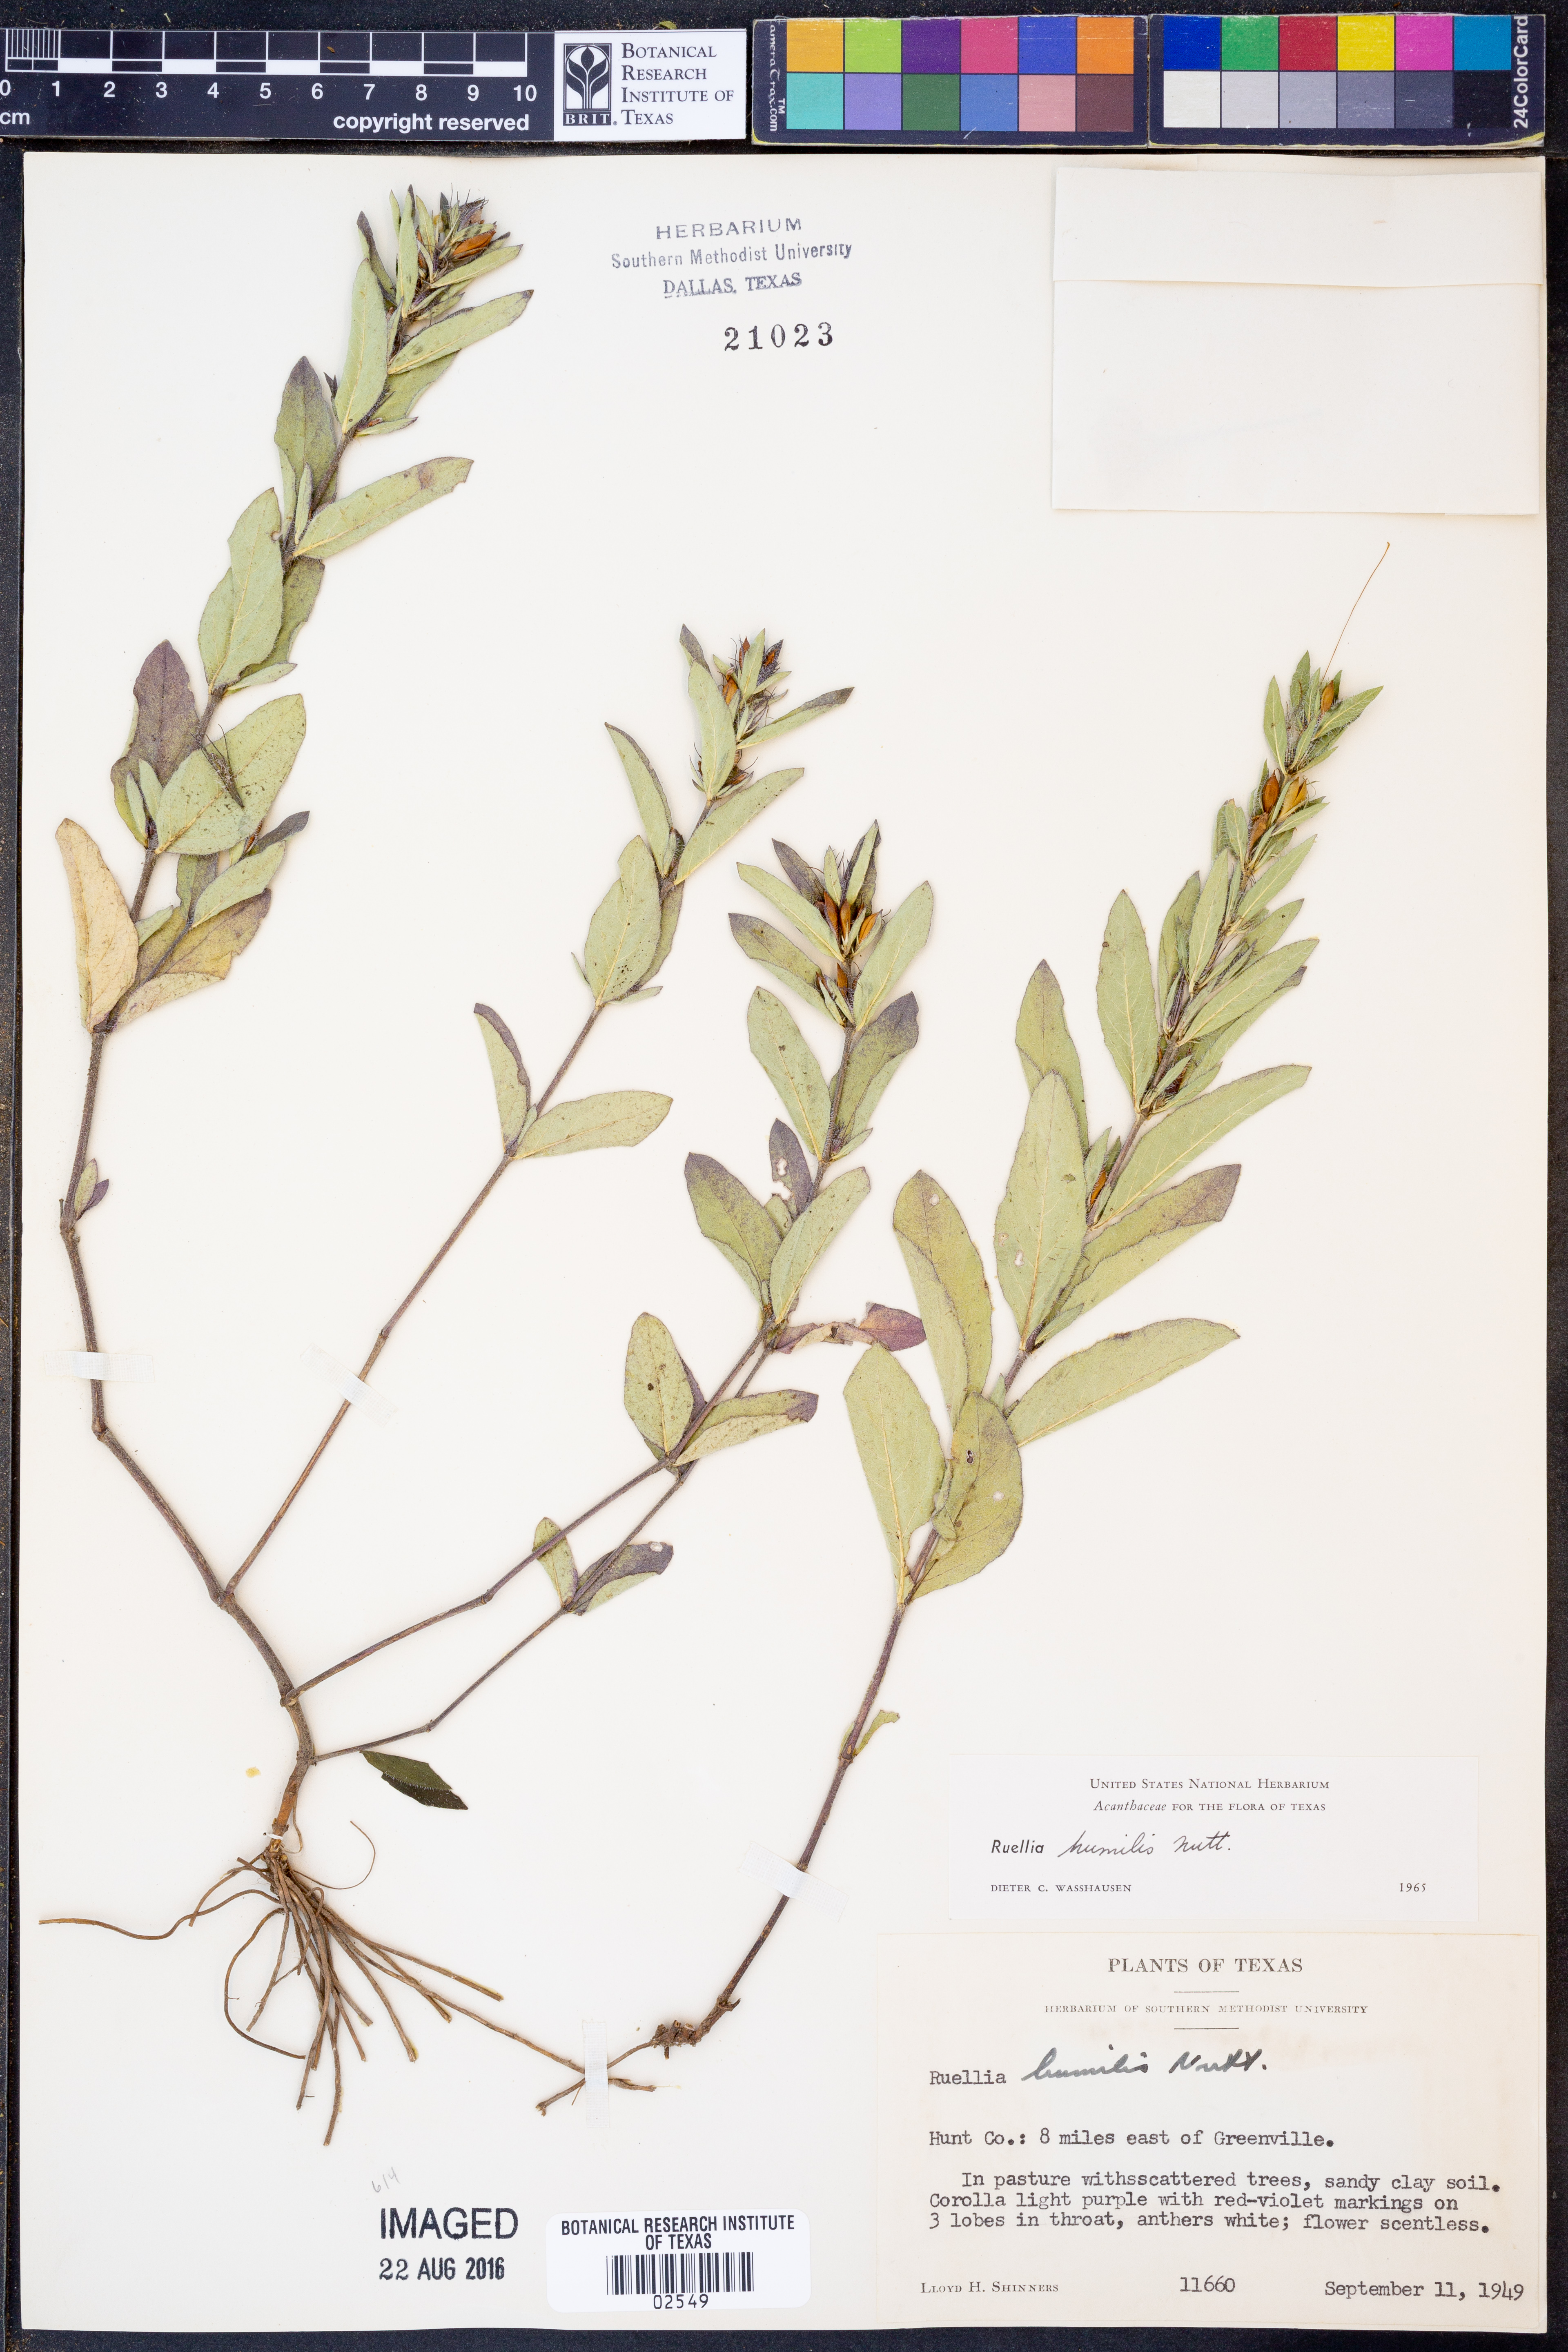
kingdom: Plantae
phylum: Tracheophyta
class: Magnoliopsida
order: Lamiales
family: Acanthaceae
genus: Ruellia
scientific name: Ruellia humilis
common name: Fringe-leaf ruellia
